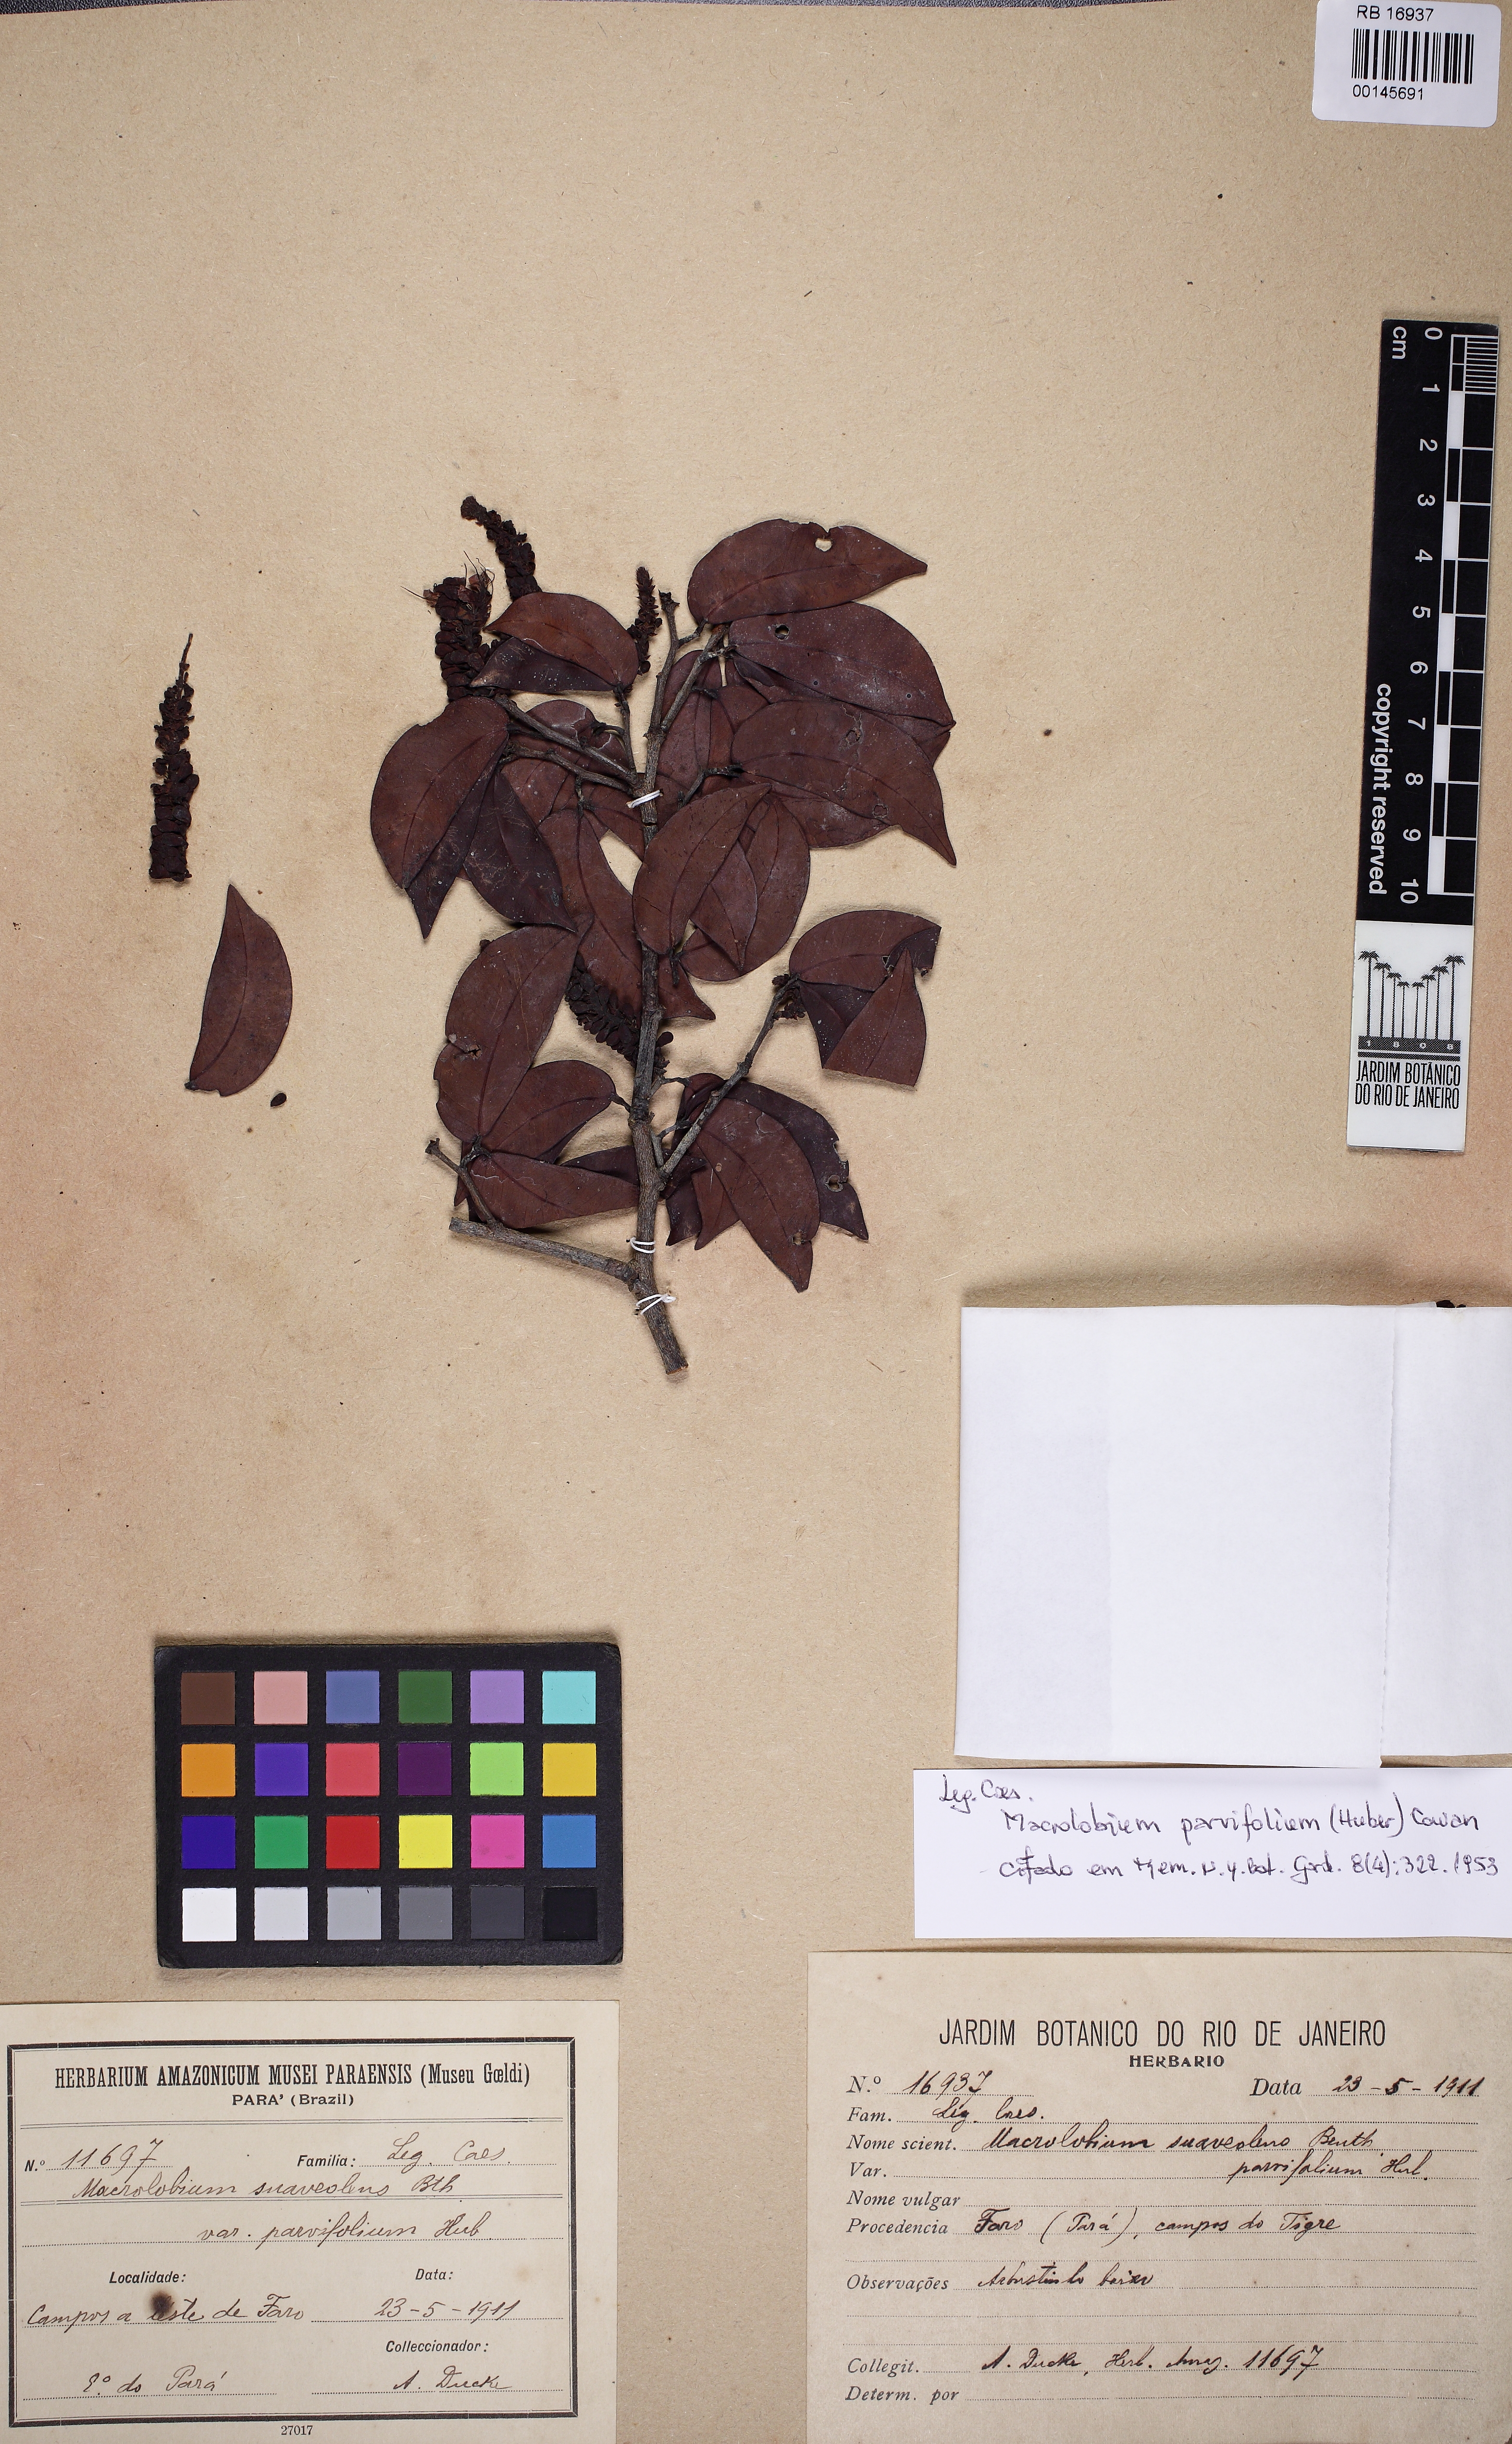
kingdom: Plantae
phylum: Tracheophyta
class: Magnoliopsida
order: Fabales
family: Fabaceae
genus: Macrolobium
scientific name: Macrolobium parvifolium
